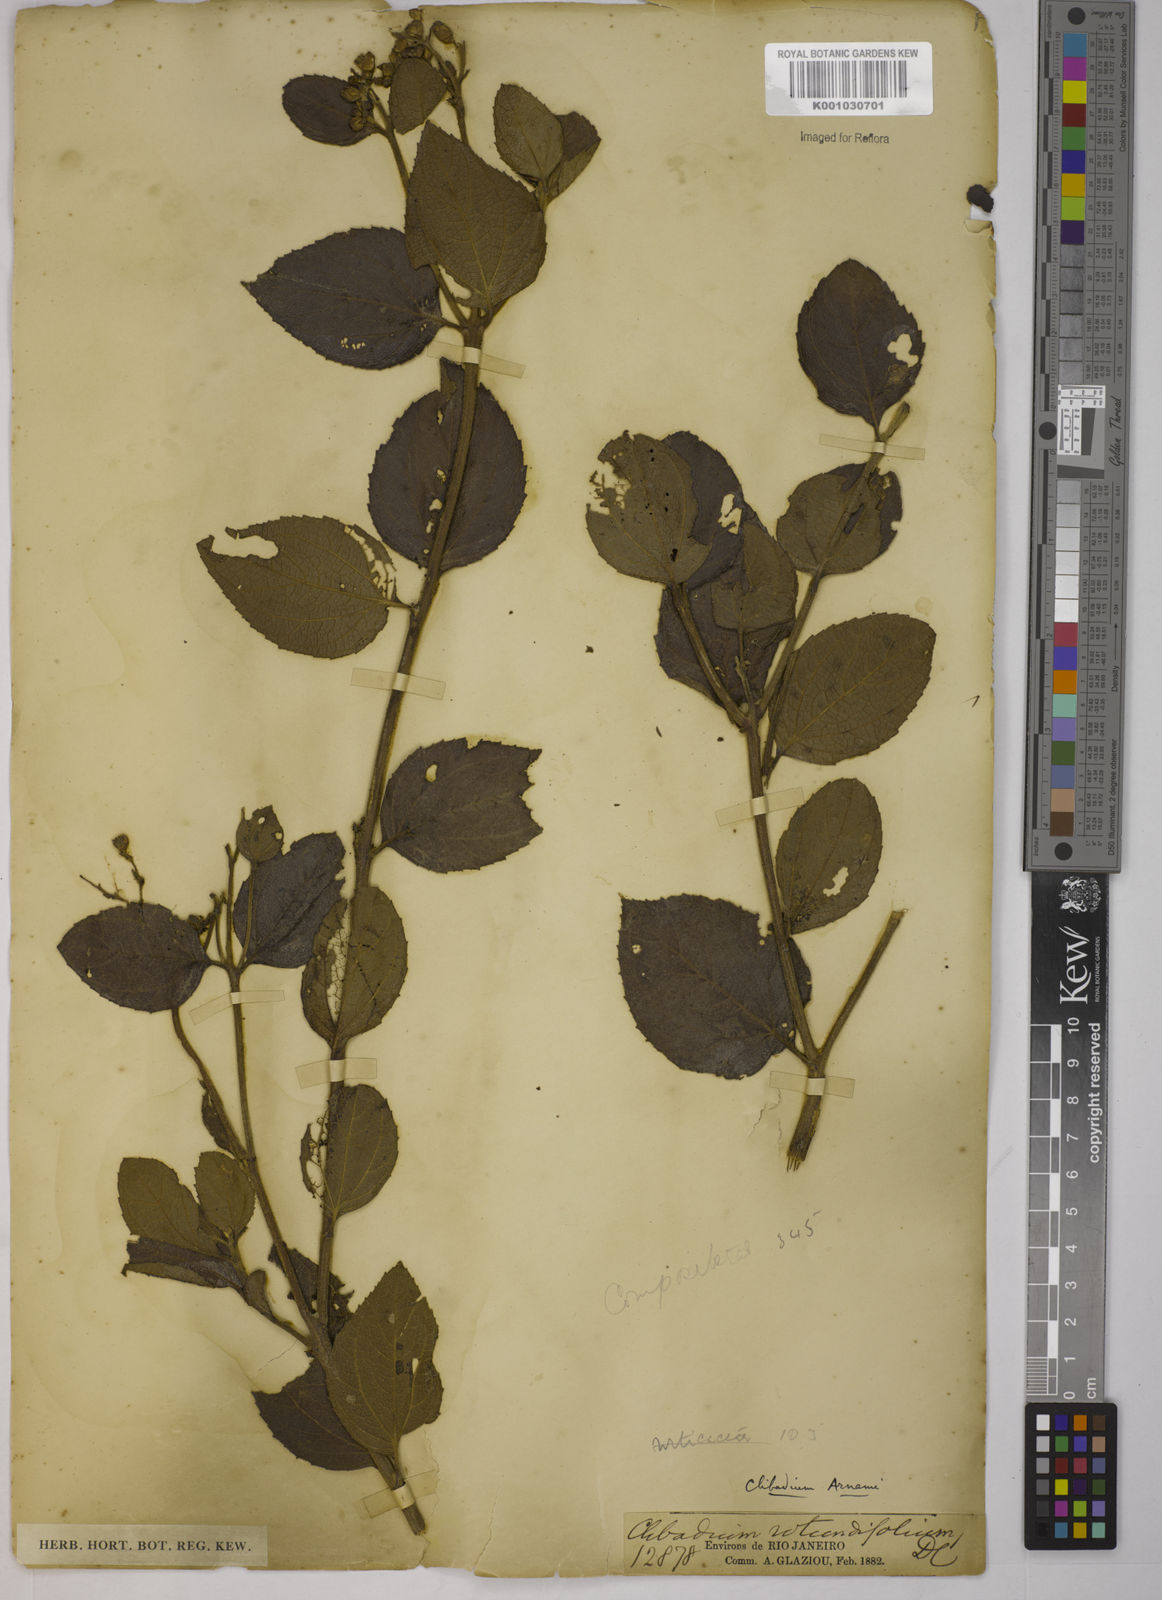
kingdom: Plantae
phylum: Tracheophyta
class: Magnoliopsida
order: Asterales
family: Asteraceae
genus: Clibadium
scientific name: Clibadium armanii
